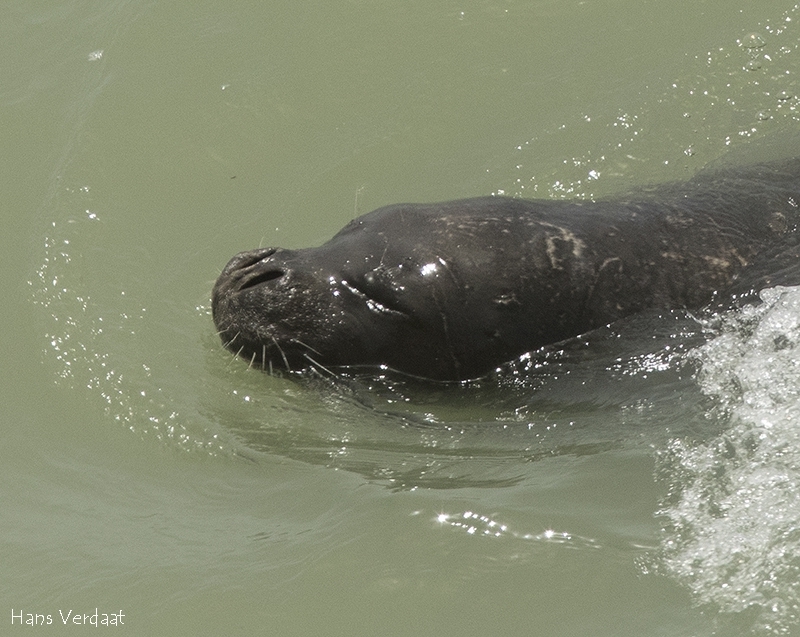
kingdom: Animalia
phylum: Chordata
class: Mammalia
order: Carnivora
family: Phocidae
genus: Monachus
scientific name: Monachus monachus
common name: Mediterranean Monk Seal
